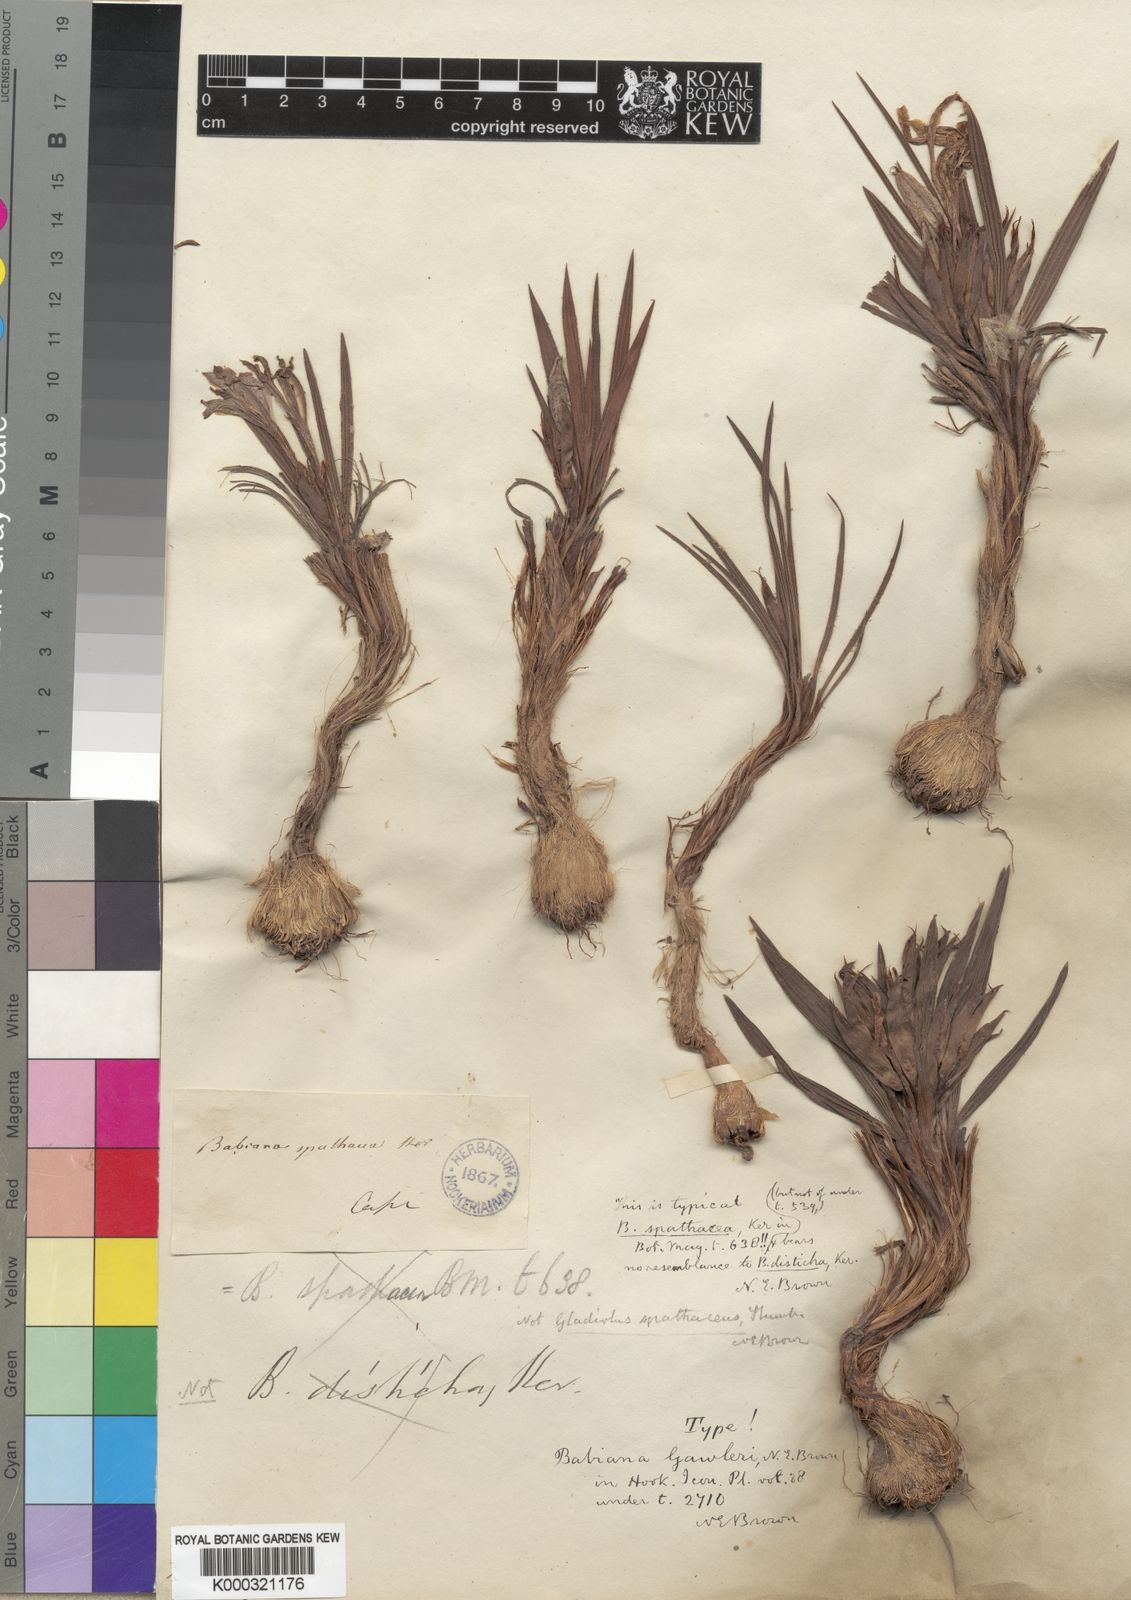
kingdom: Plantae
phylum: Tracheophyta
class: Liliopsida
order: Asparagales
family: Iridaceae
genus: Babiana
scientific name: Babiana sambucina
